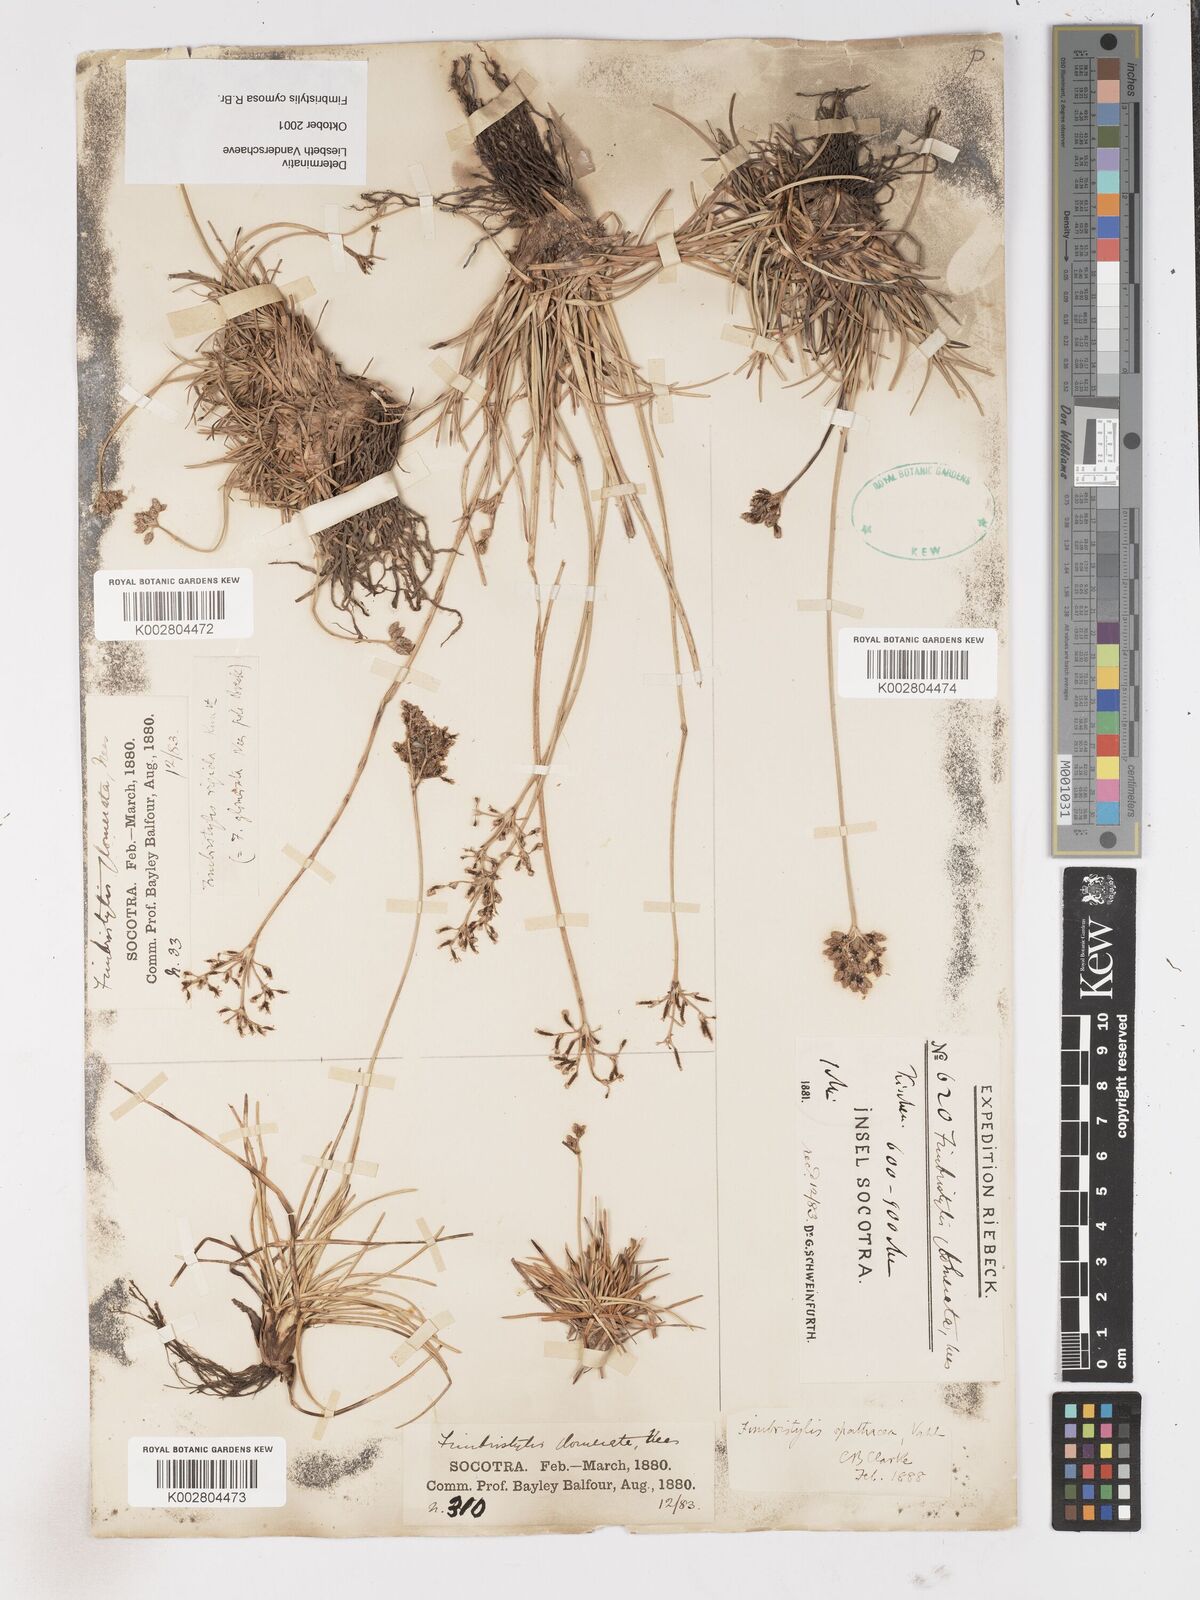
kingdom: Plantae
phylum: Tracheophyta
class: Liliopsida
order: Poales
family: Cyperaceae
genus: Fimbristylis
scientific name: Fimbristylis cymosa
